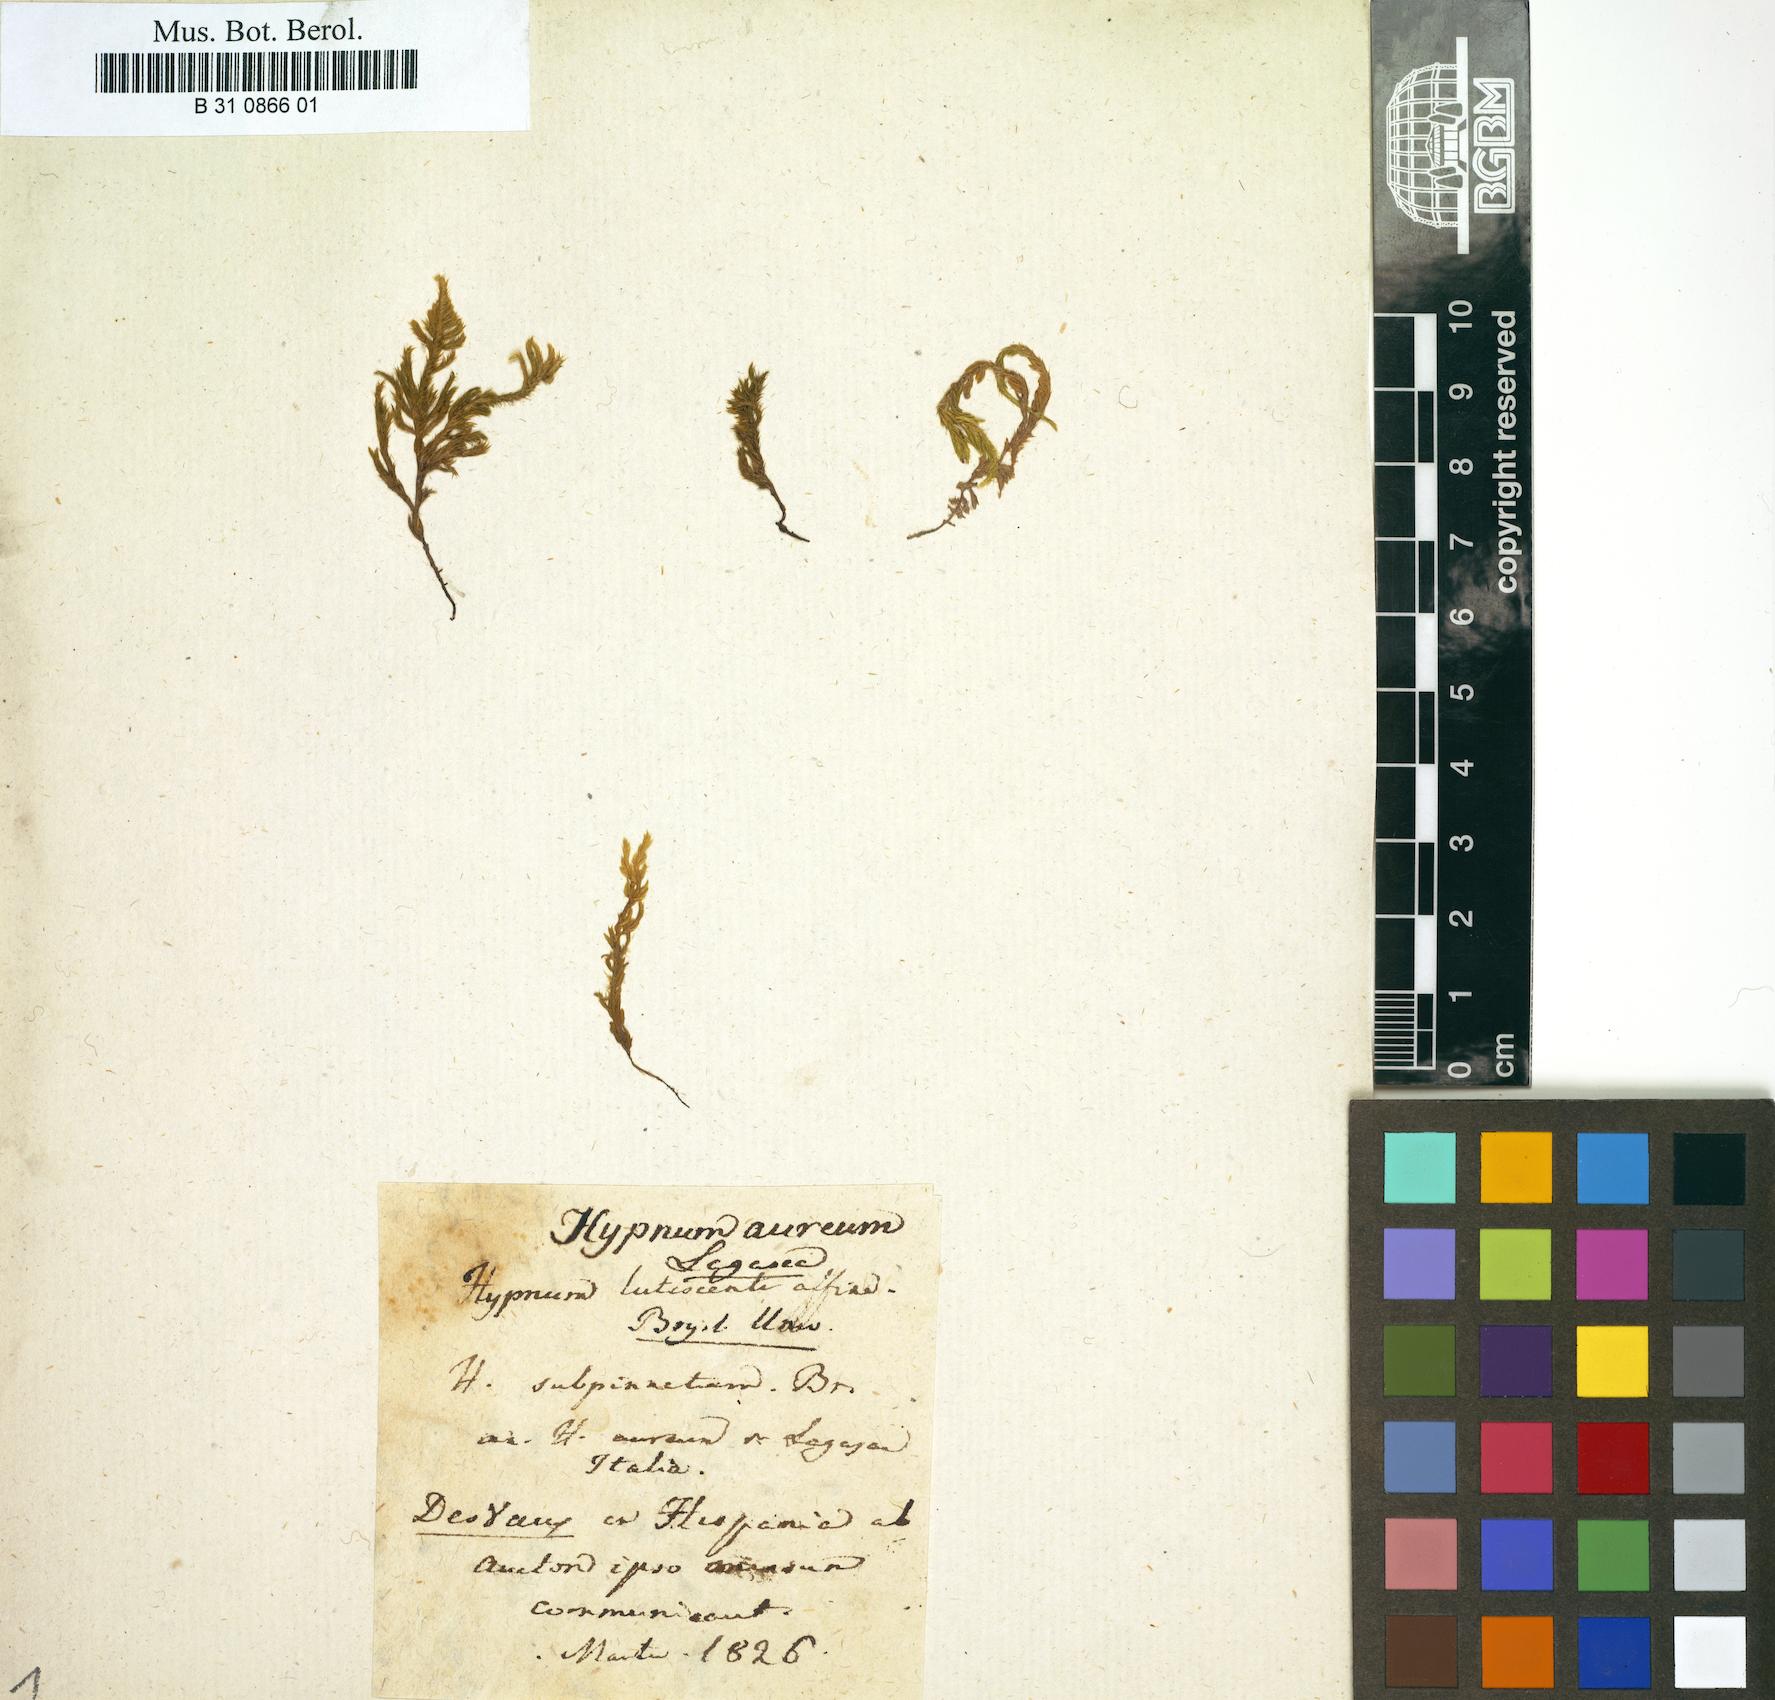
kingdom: Plantae
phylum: Bryophyta
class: Bryopsida
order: Hookeriales
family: Pilotrichaceae
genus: Hemiragis
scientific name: Hemiragis aurea
